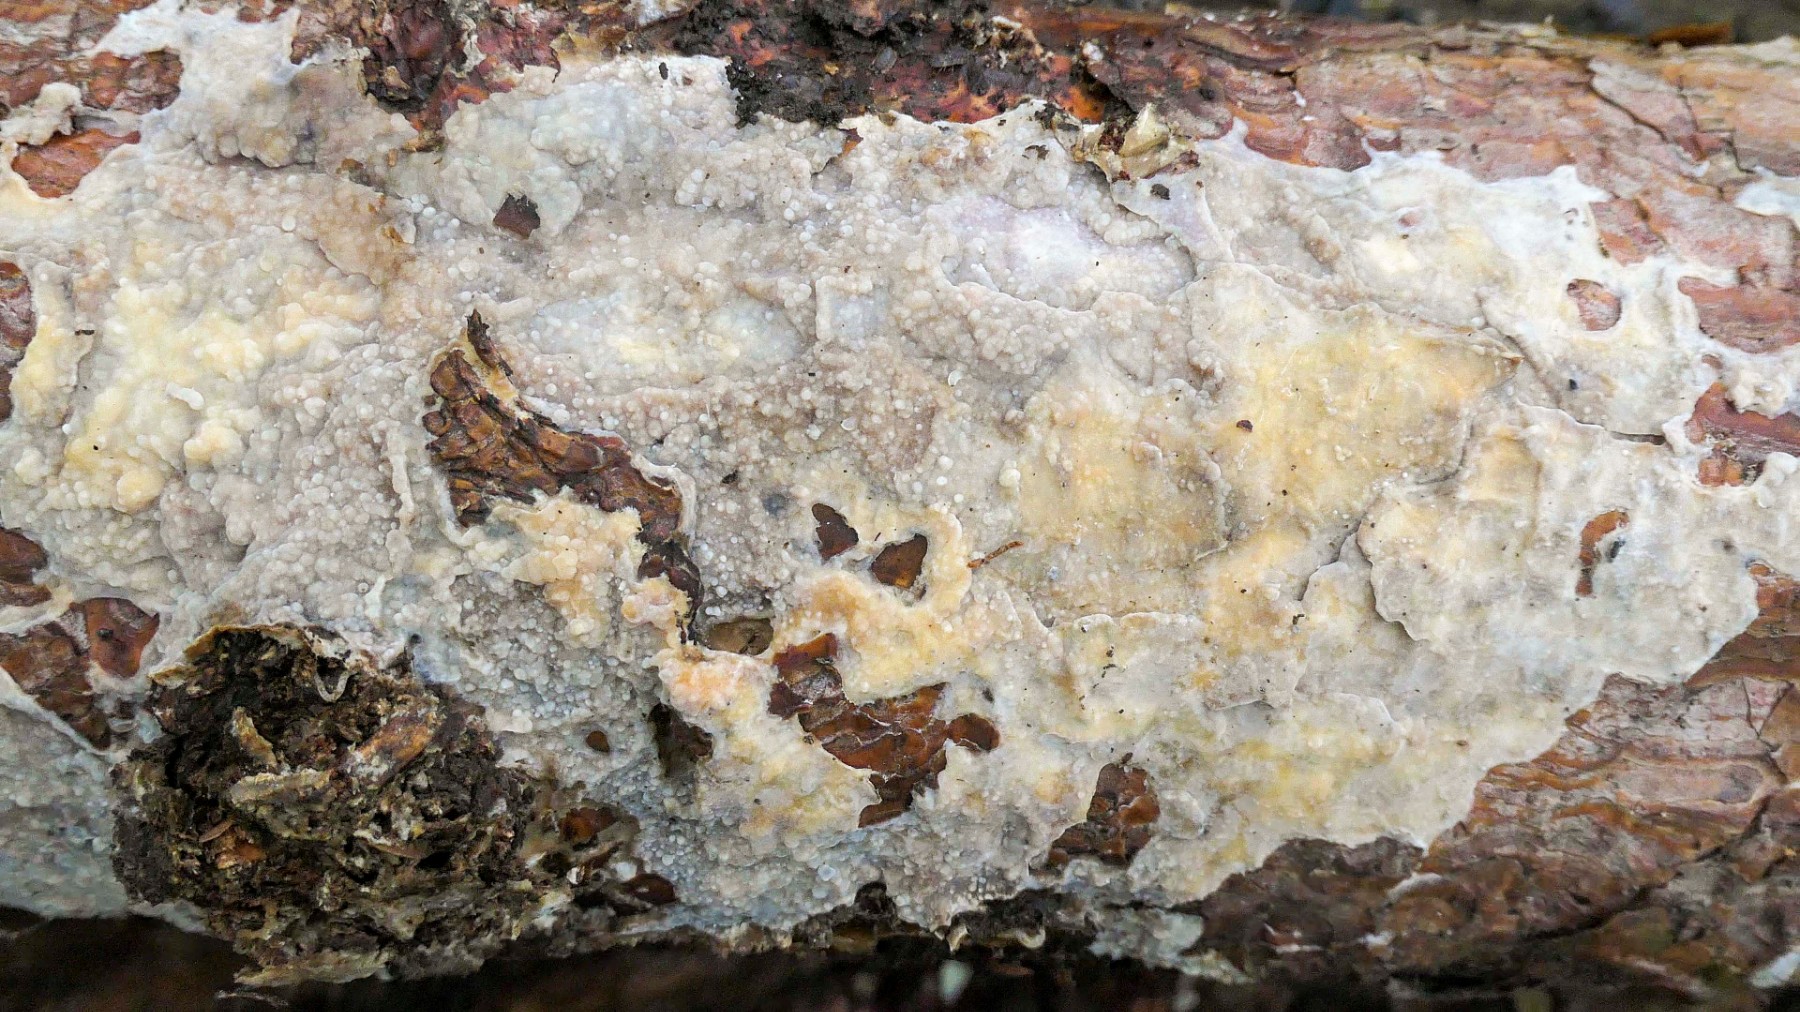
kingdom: Fungi
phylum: Basidiomycota
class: Agaricomycetes
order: Polyporales
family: Phanerochaetaceae
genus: Phlebiopsis
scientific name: Phlebiopsis gigantea
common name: kæmpebarksvamp
